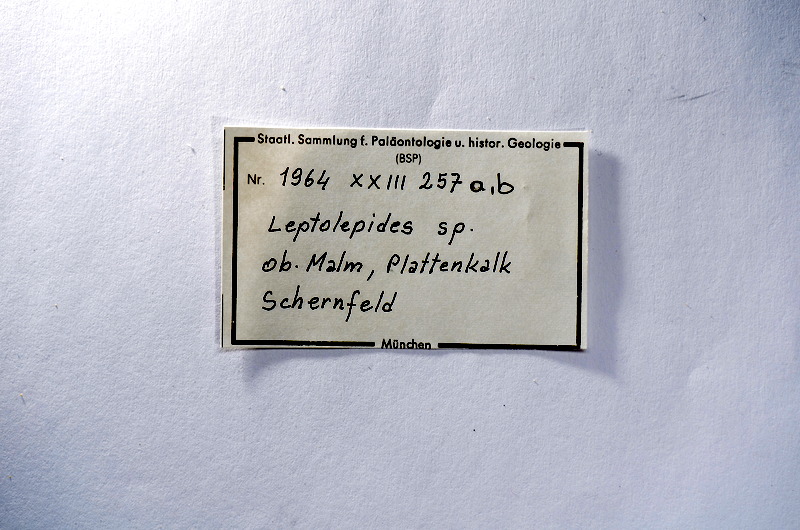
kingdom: Animalia
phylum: Chordata
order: Salmoniformes
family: Orthogonikleithridae
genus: Leptolepides
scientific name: Leptolepides
